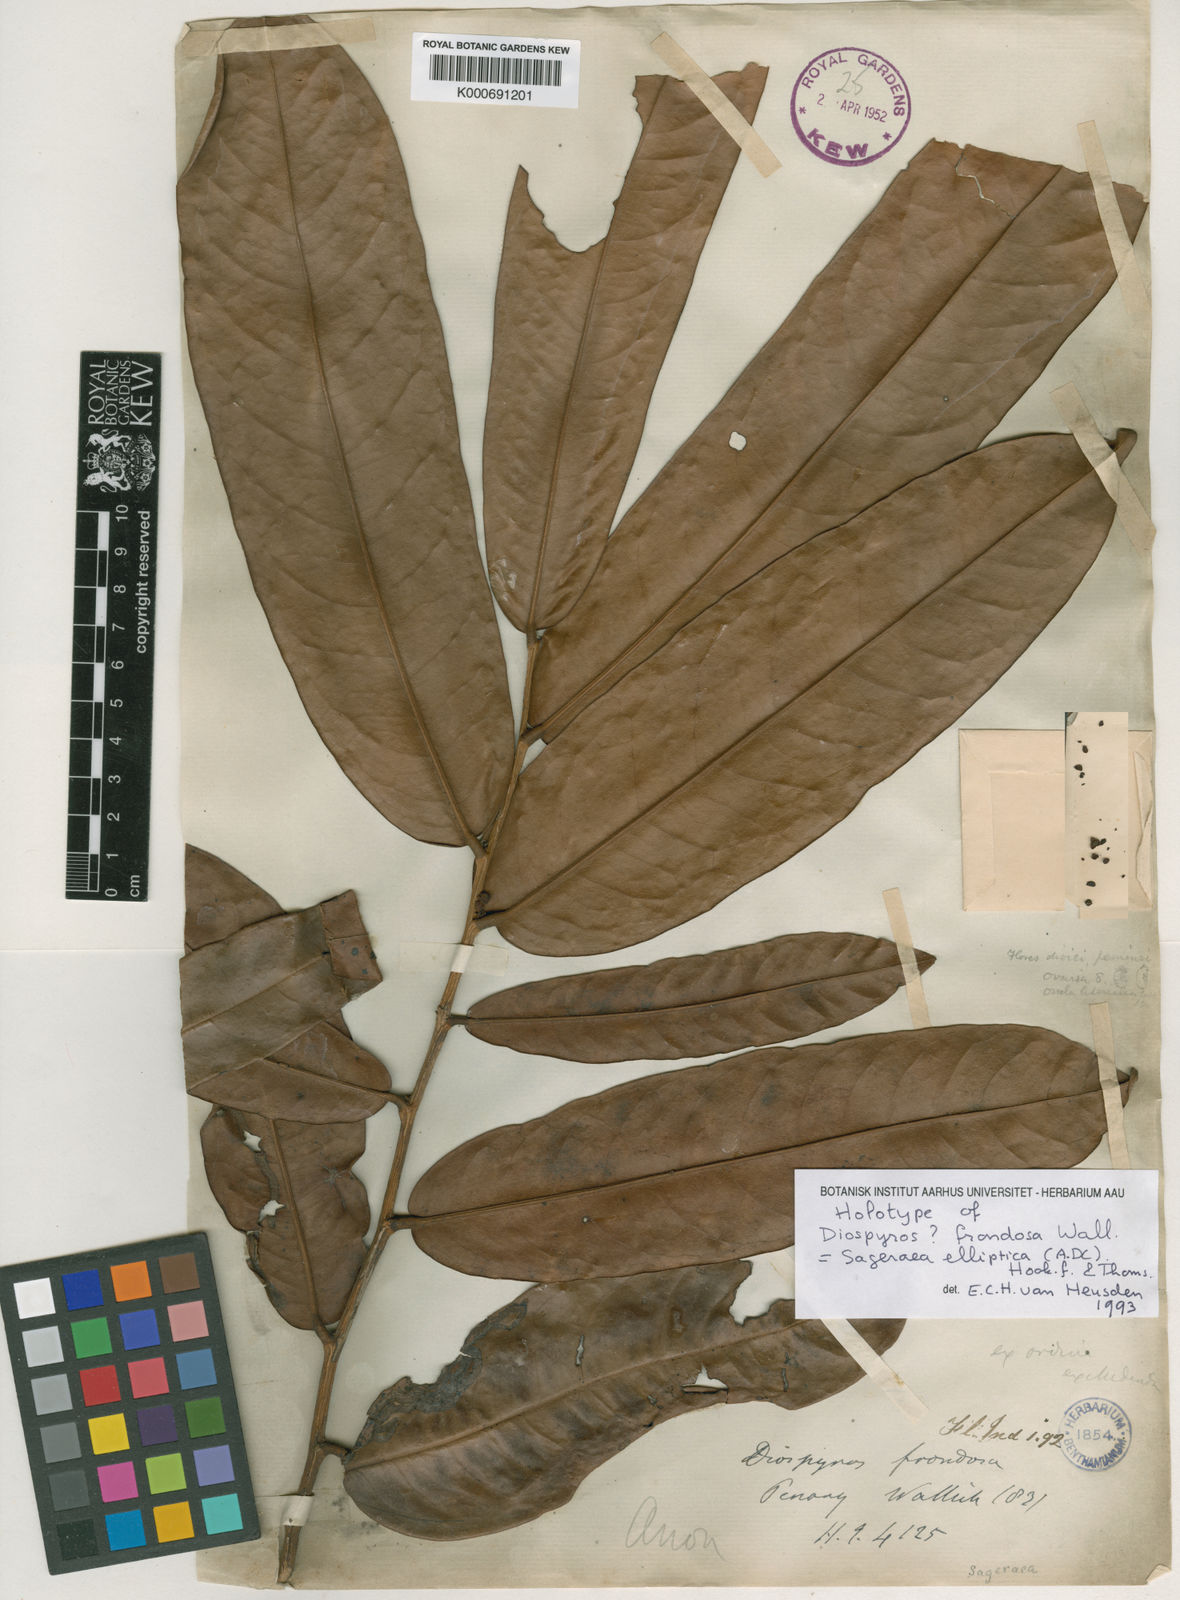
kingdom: Plantae
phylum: Tracheophyta
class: Magnoliopsida
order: Magnoliales
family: Annonaceae
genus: Sageraea
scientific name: Sageraea elliptica
